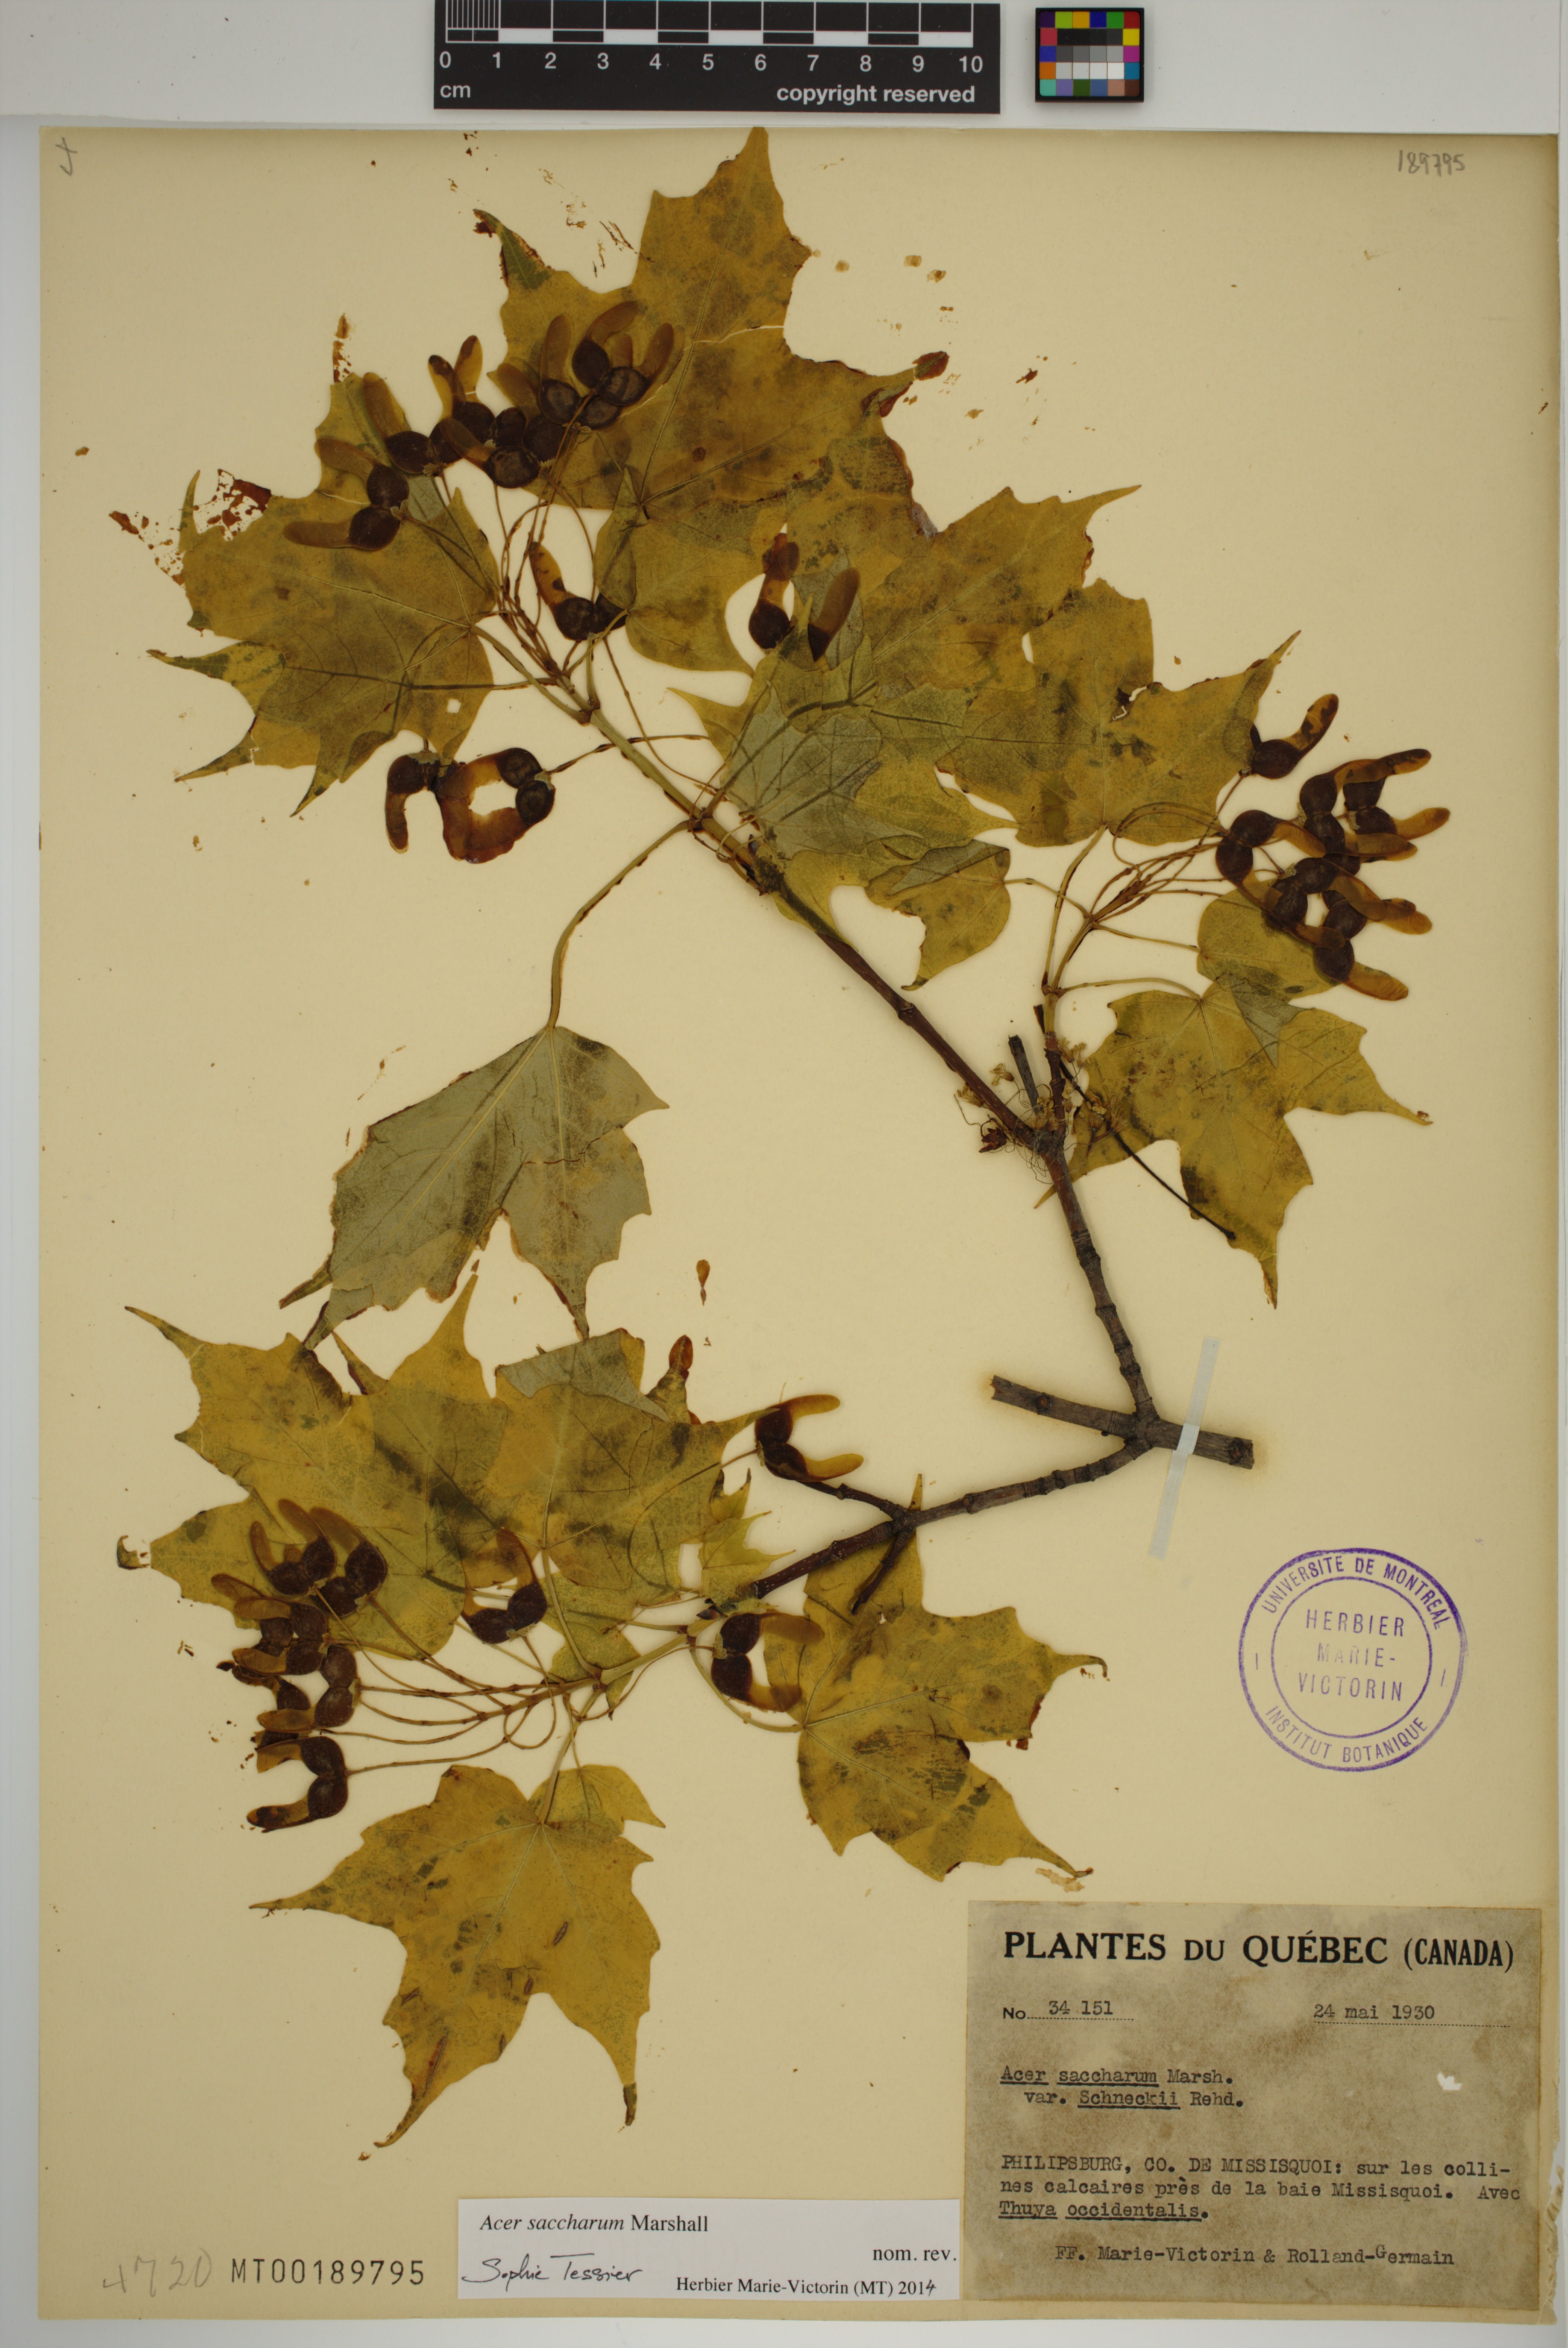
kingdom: Plantae
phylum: Tracheophyta
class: Magnoliopsida
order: Sapindales
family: Sapindaceae
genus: Acer
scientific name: Acer saccharum
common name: Sugar maple
